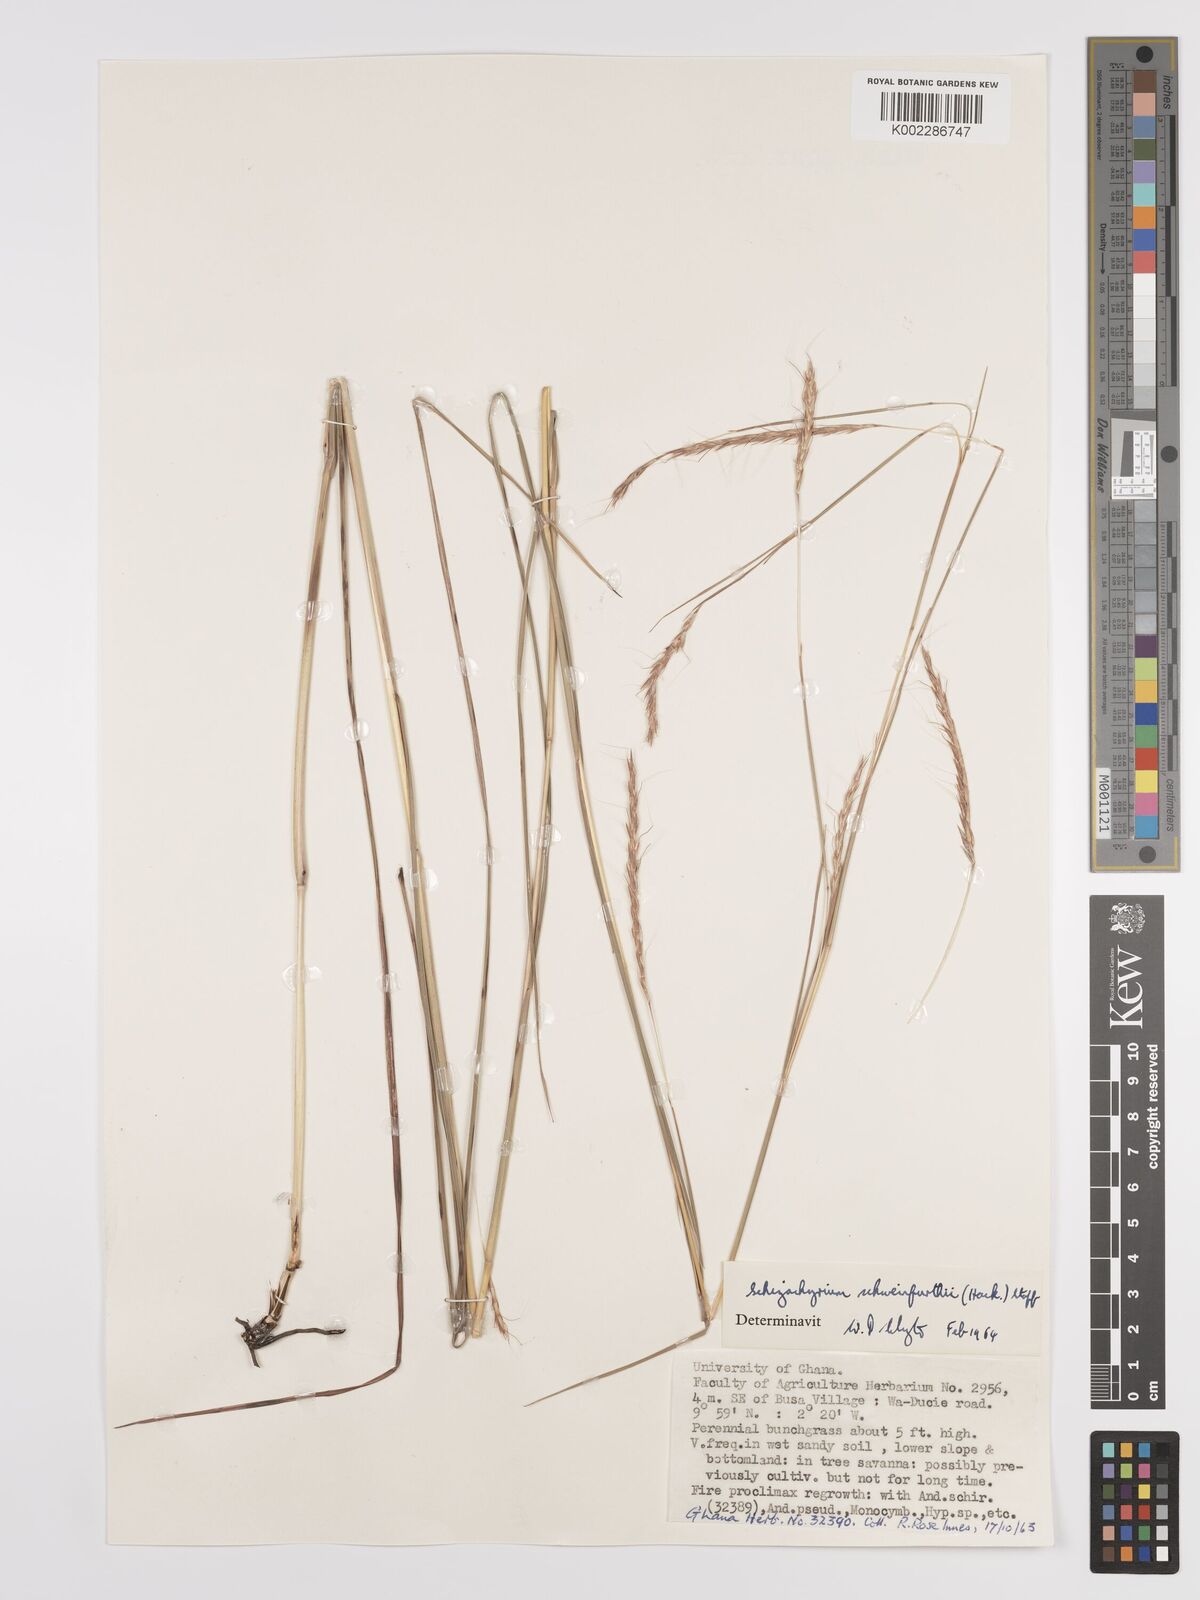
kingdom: Plantae
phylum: Tracheophyta
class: Liliopsida
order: Poales
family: Poaceae
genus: Andropogon
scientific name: Andropogon schweinfurthii
